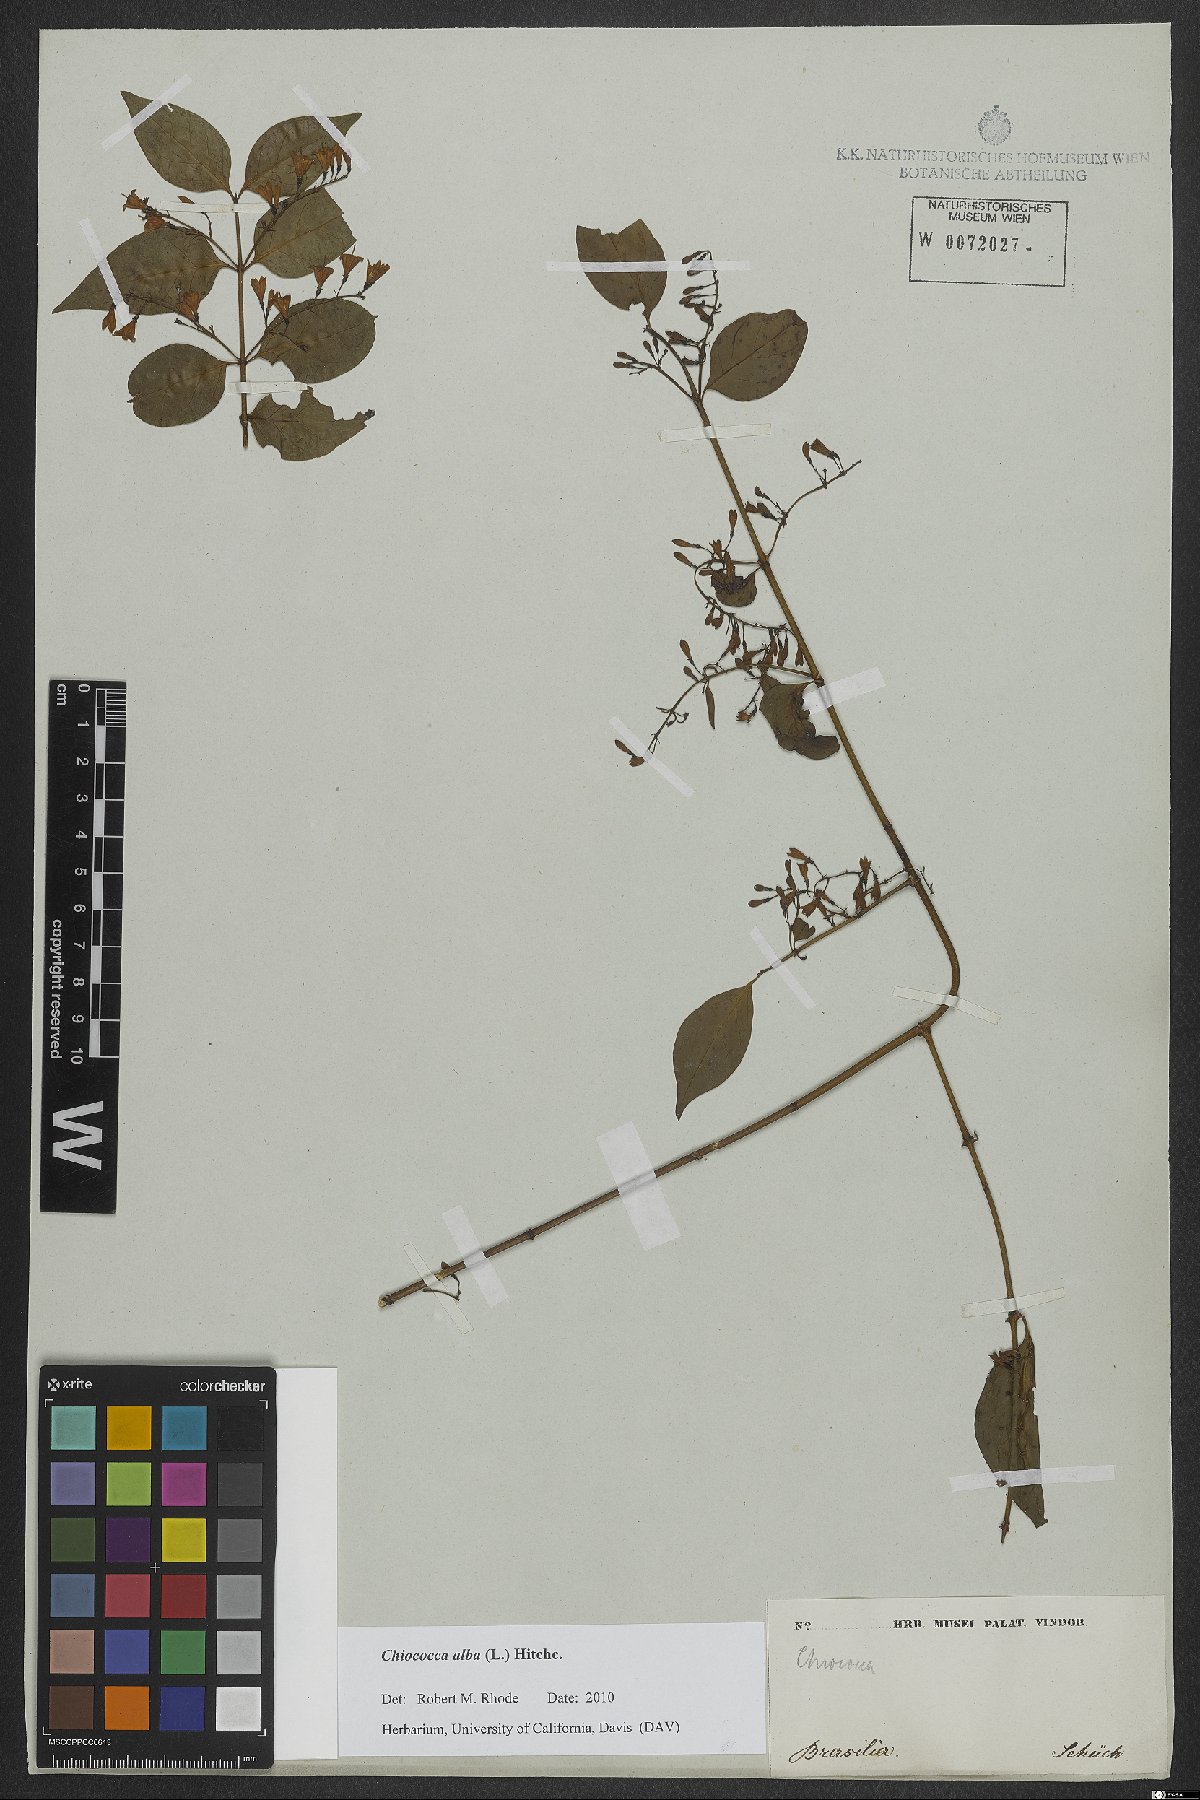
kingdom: Plantae
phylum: Tracheophyta
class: Magnoliopsida
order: Gentianales
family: Rubiaceae
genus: Chiococca
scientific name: Chiococca alba
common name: Snowberry
